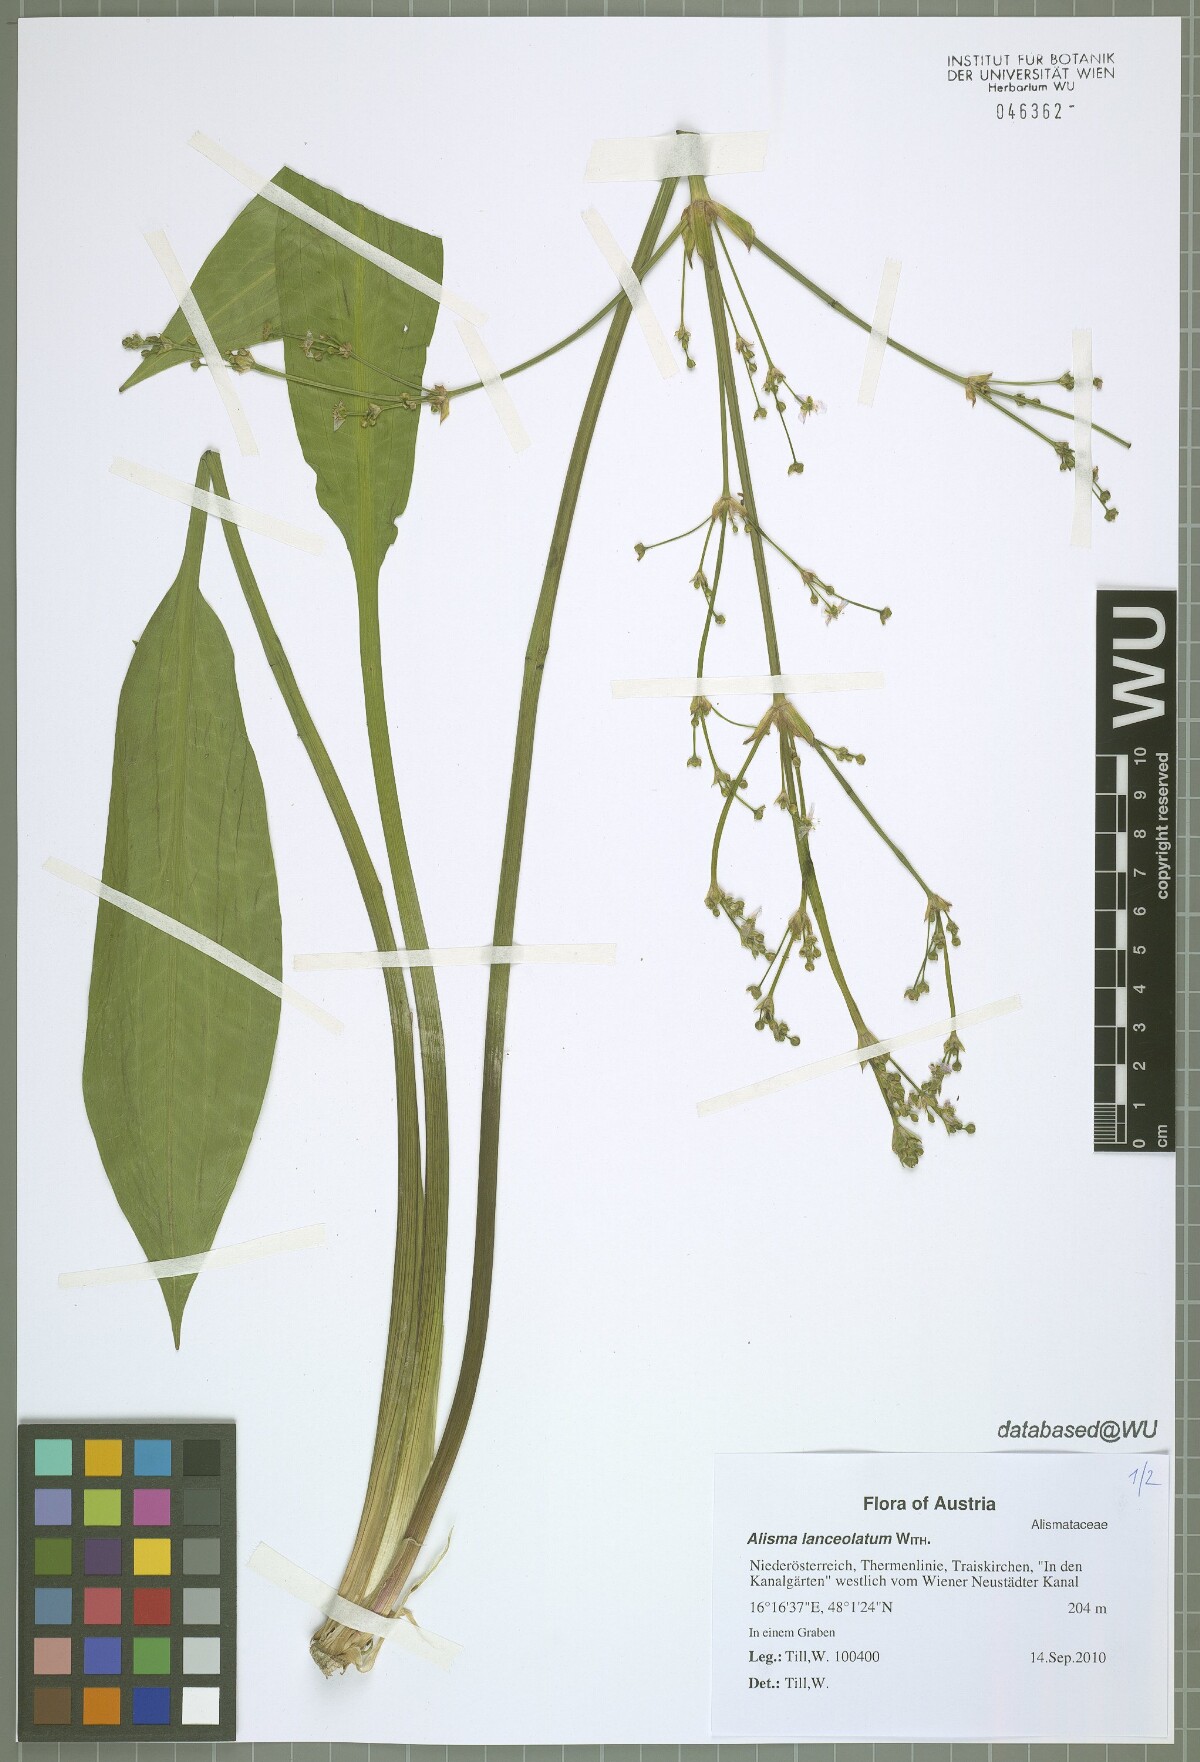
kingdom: Plantae
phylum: Tracheophyta
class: Liliopsida
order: Alismatales
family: Alismataceae
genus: Alisma
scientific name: Alisma lanceolatum
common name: Narrow-leaved water-plantain
